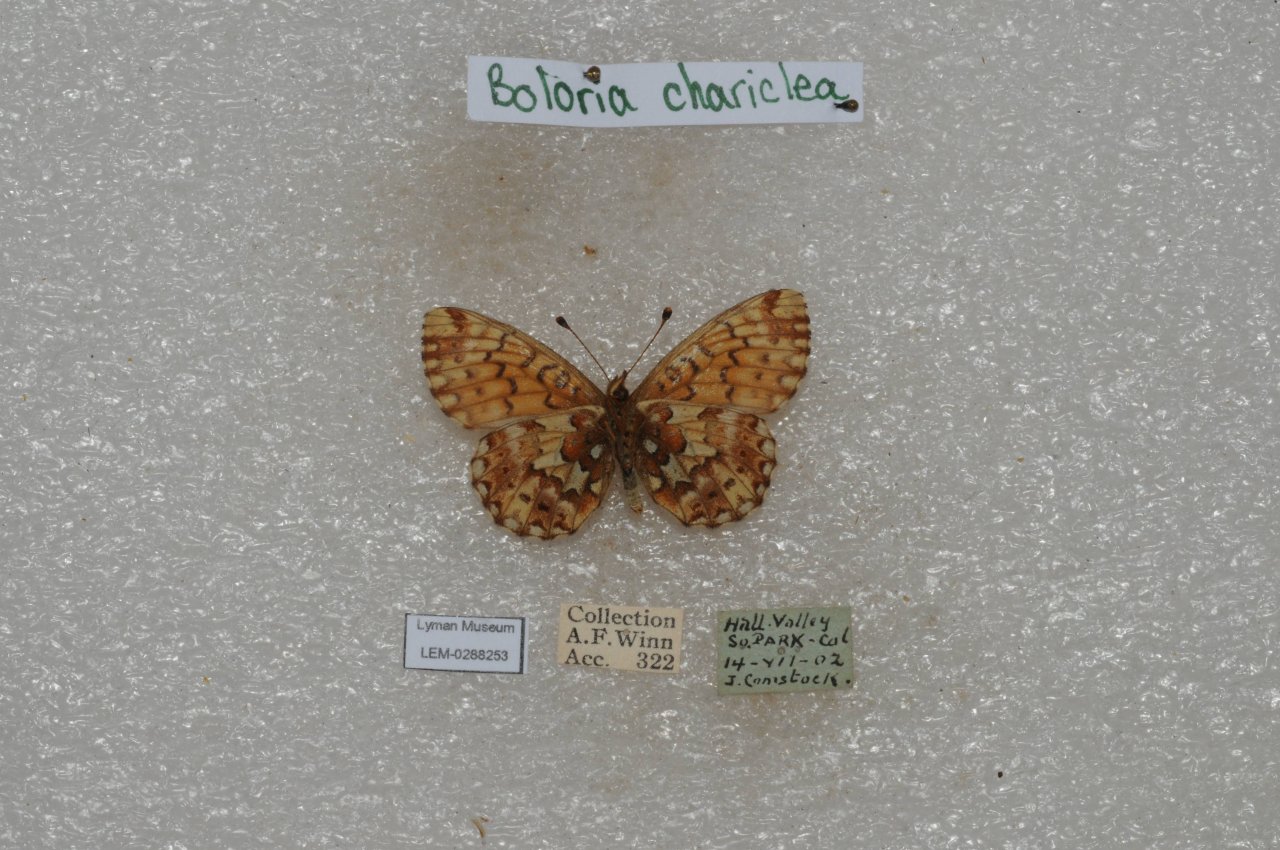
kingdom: Animalia
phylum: Arthropoda
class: Insecta
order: Lepidoptera
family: Nymphalidae
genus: Boloria
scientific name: Boloria chariclea
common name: Arctic Fritillary
